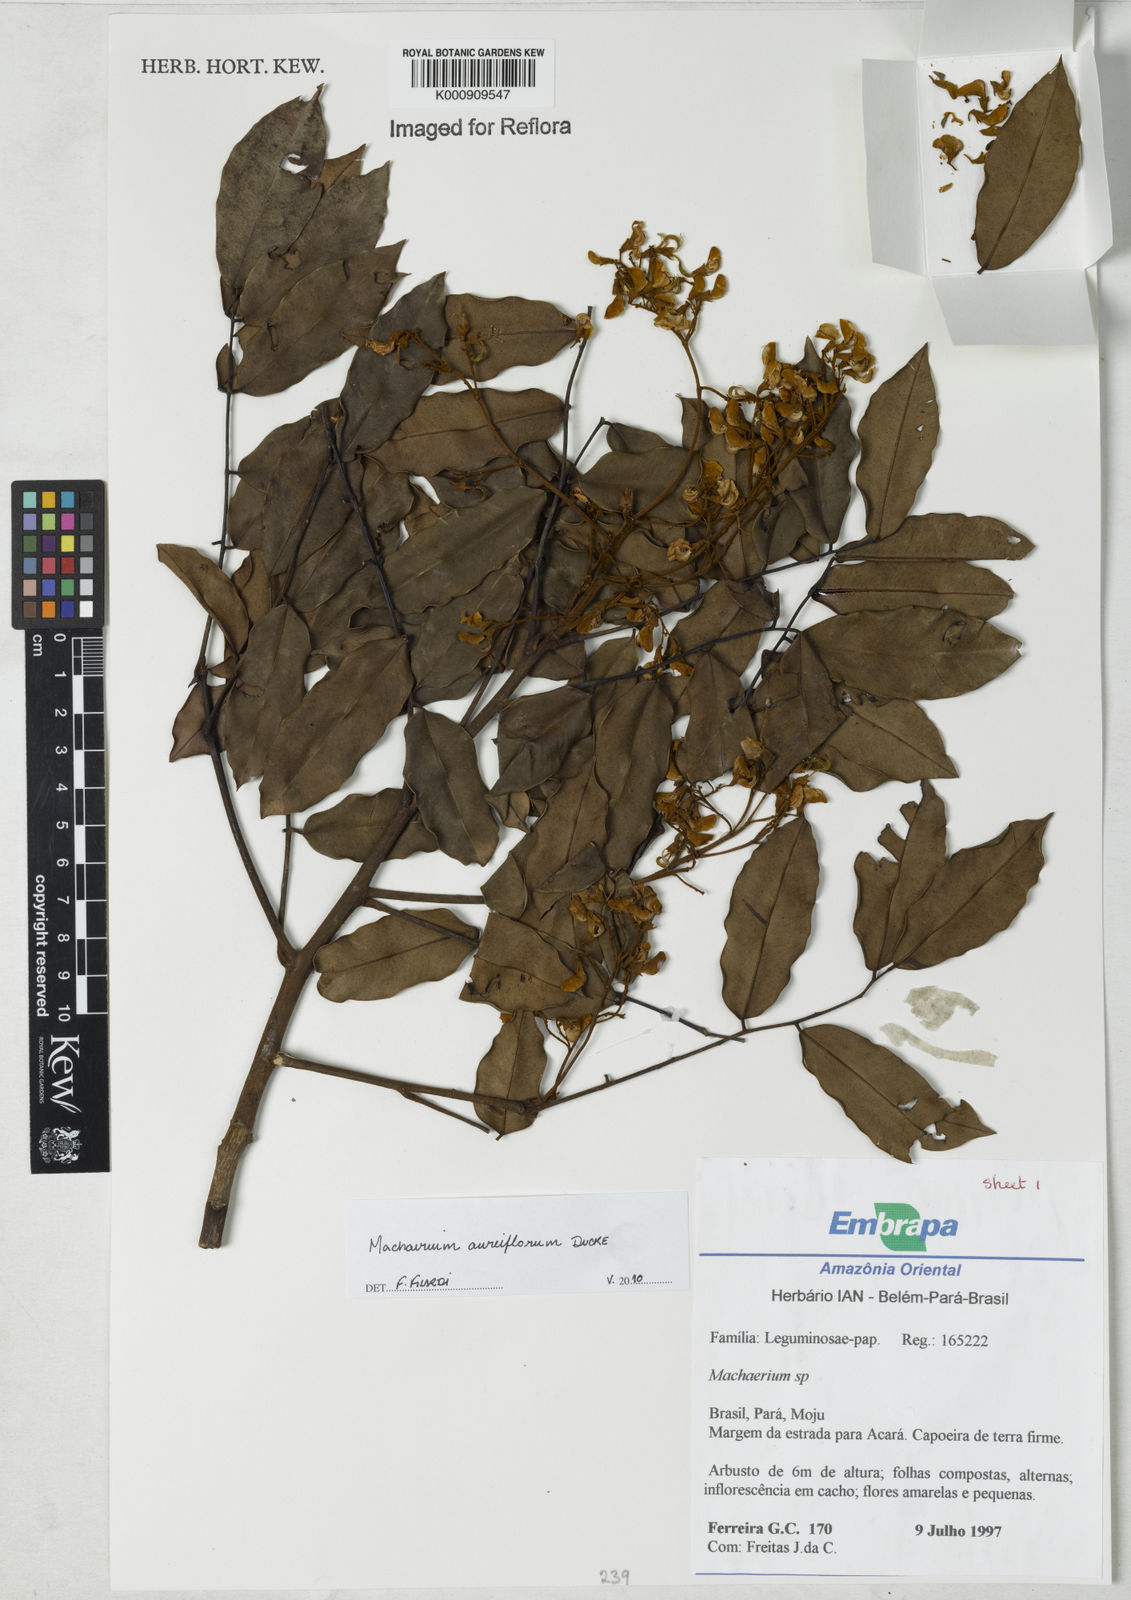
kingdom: Plantae
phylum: Tracheophyta
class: Magnoliopsida
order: Fabales
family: Fabaceae
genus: Machaerium
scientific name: Machaerium aureiflorum
